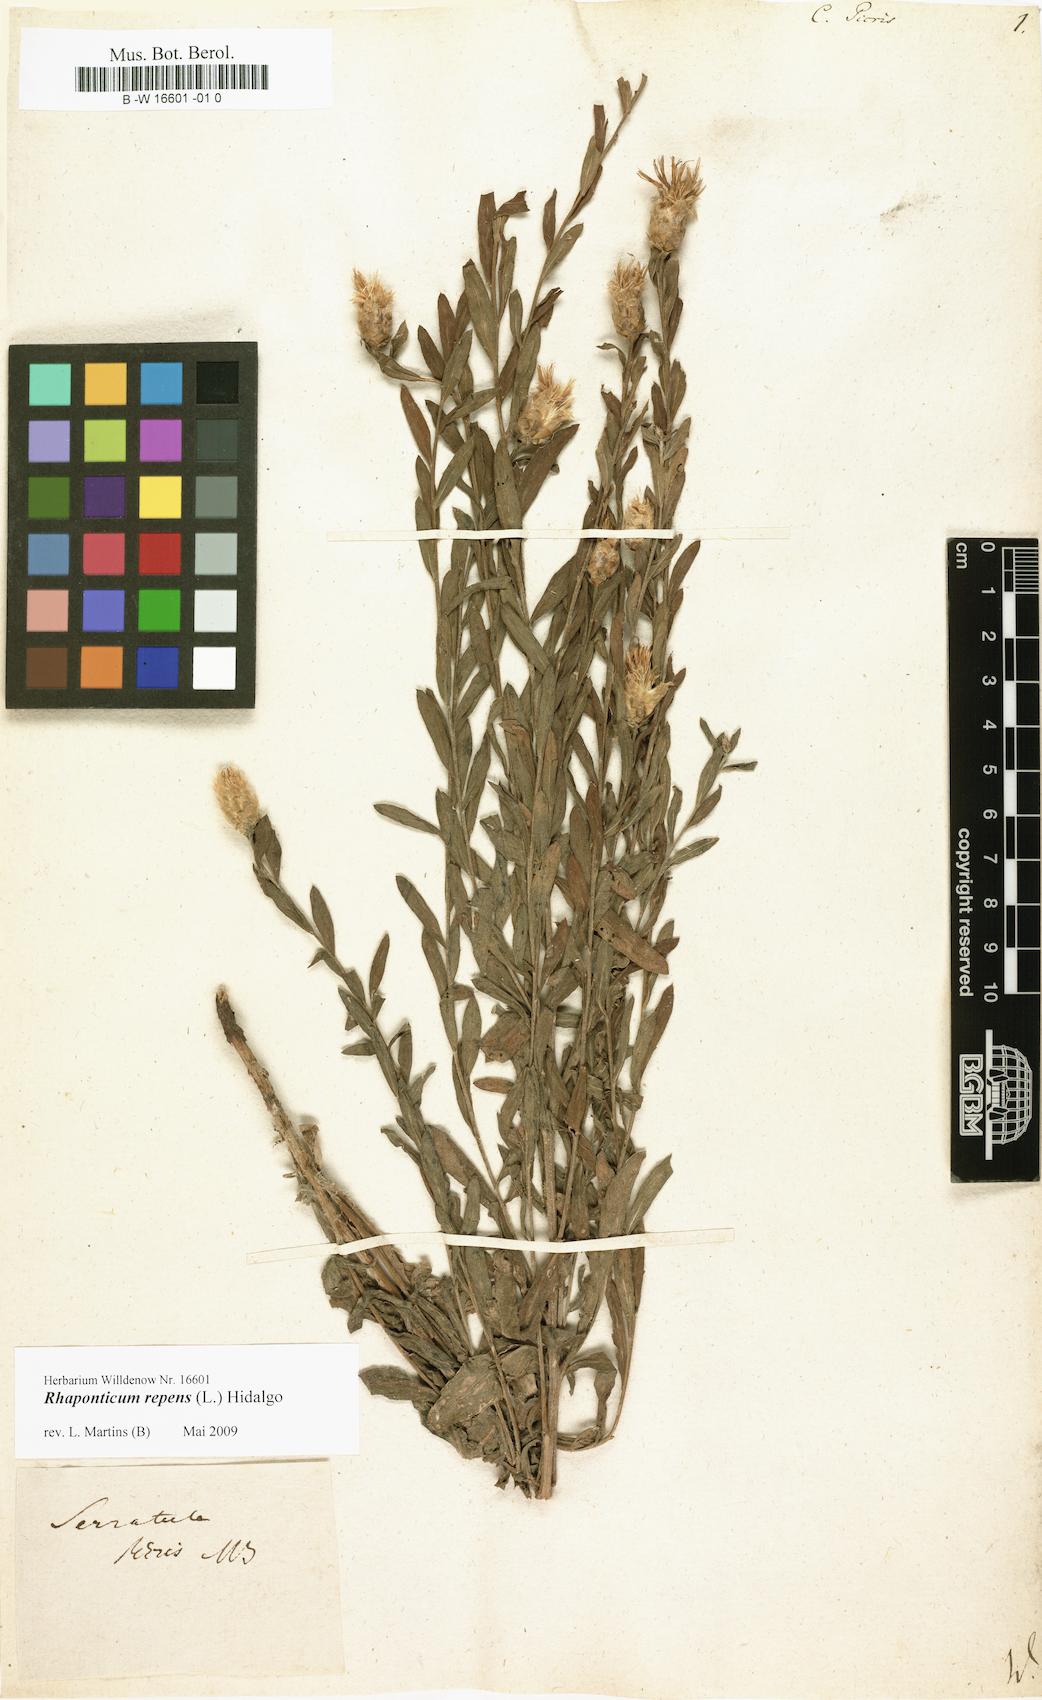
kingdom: Plantae
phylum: Tracheophyta
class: Magnoliopsida
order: Asterales
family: Asteraceae
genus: Leuzea
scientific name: Leuzea repens
